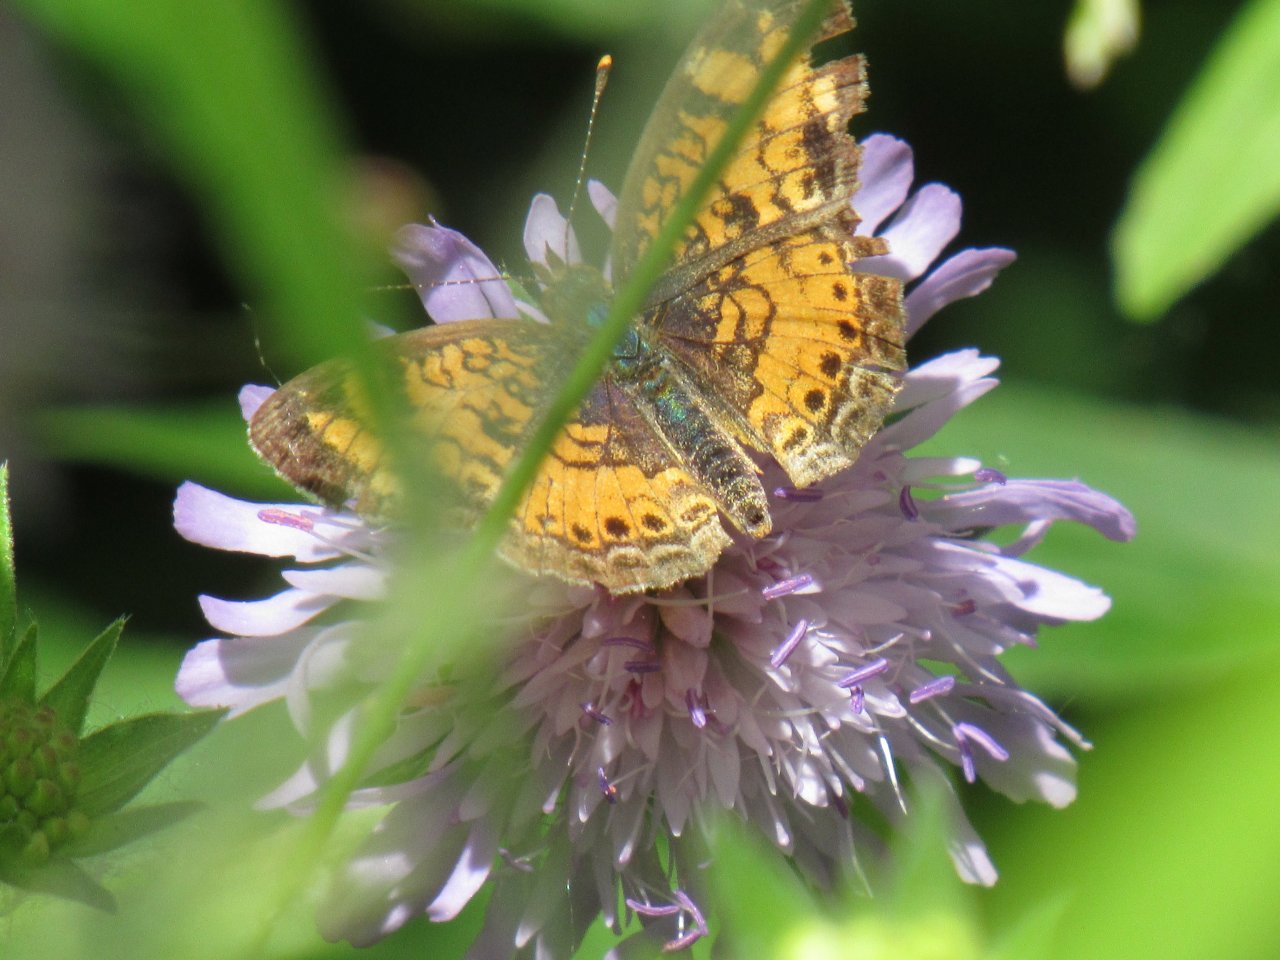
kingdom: Animalia
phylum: Arthropoda
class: Insecta
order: Lepidoptera
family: Nymphalidae
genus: Phyciodes
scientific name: Phyciodes
